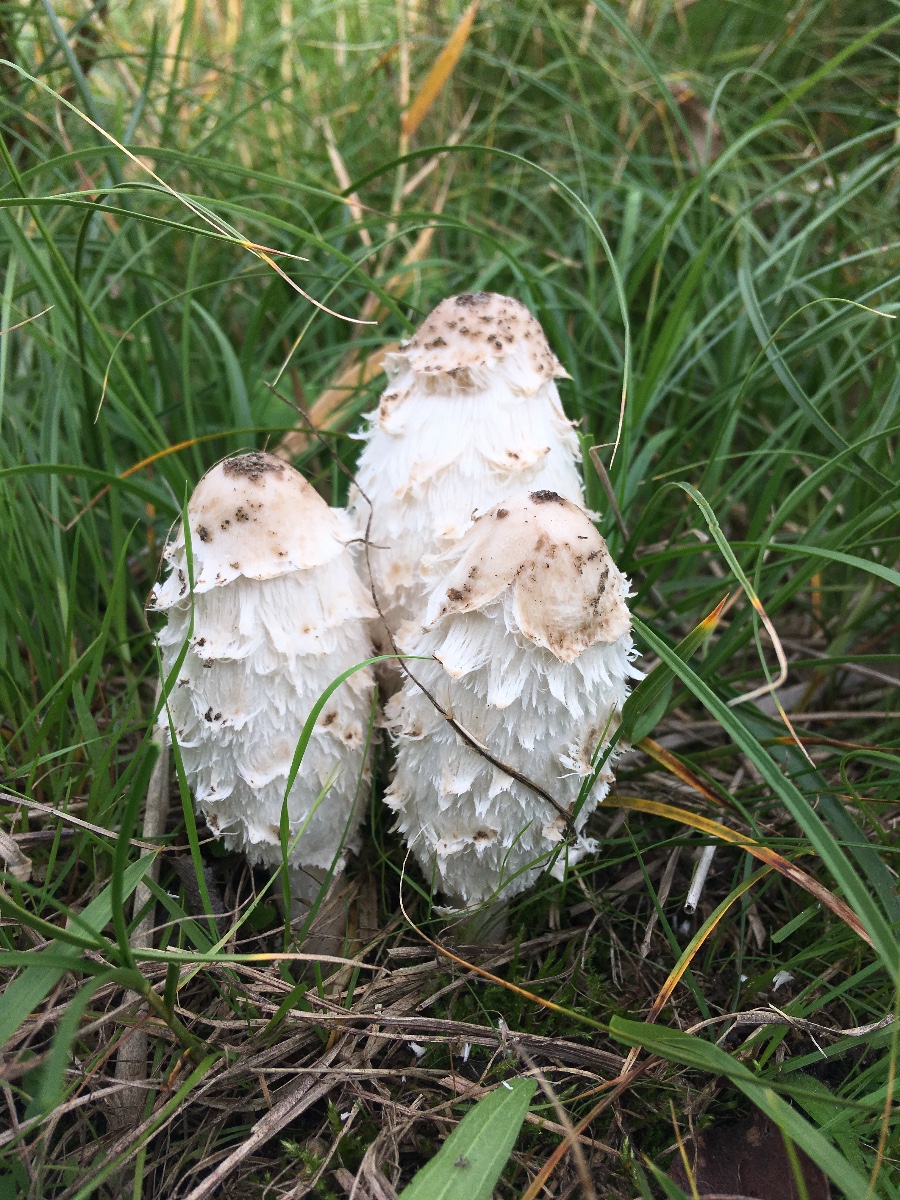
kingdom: Fungi
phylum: Basidiomycota
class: Agaricomycetes
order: Agaricales
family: Agaricaceae
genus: Coprinus
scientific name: Coprinus comatus
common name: stor parykhat
